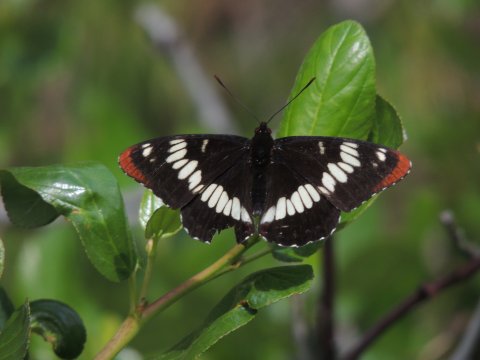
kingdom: Animalia
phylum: Arthropoda
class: Insecta
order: Lepidoptera
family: Nymphalidae
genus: Limenitis
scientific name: Limenitis lorquini
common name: Lorquin's Admiral
